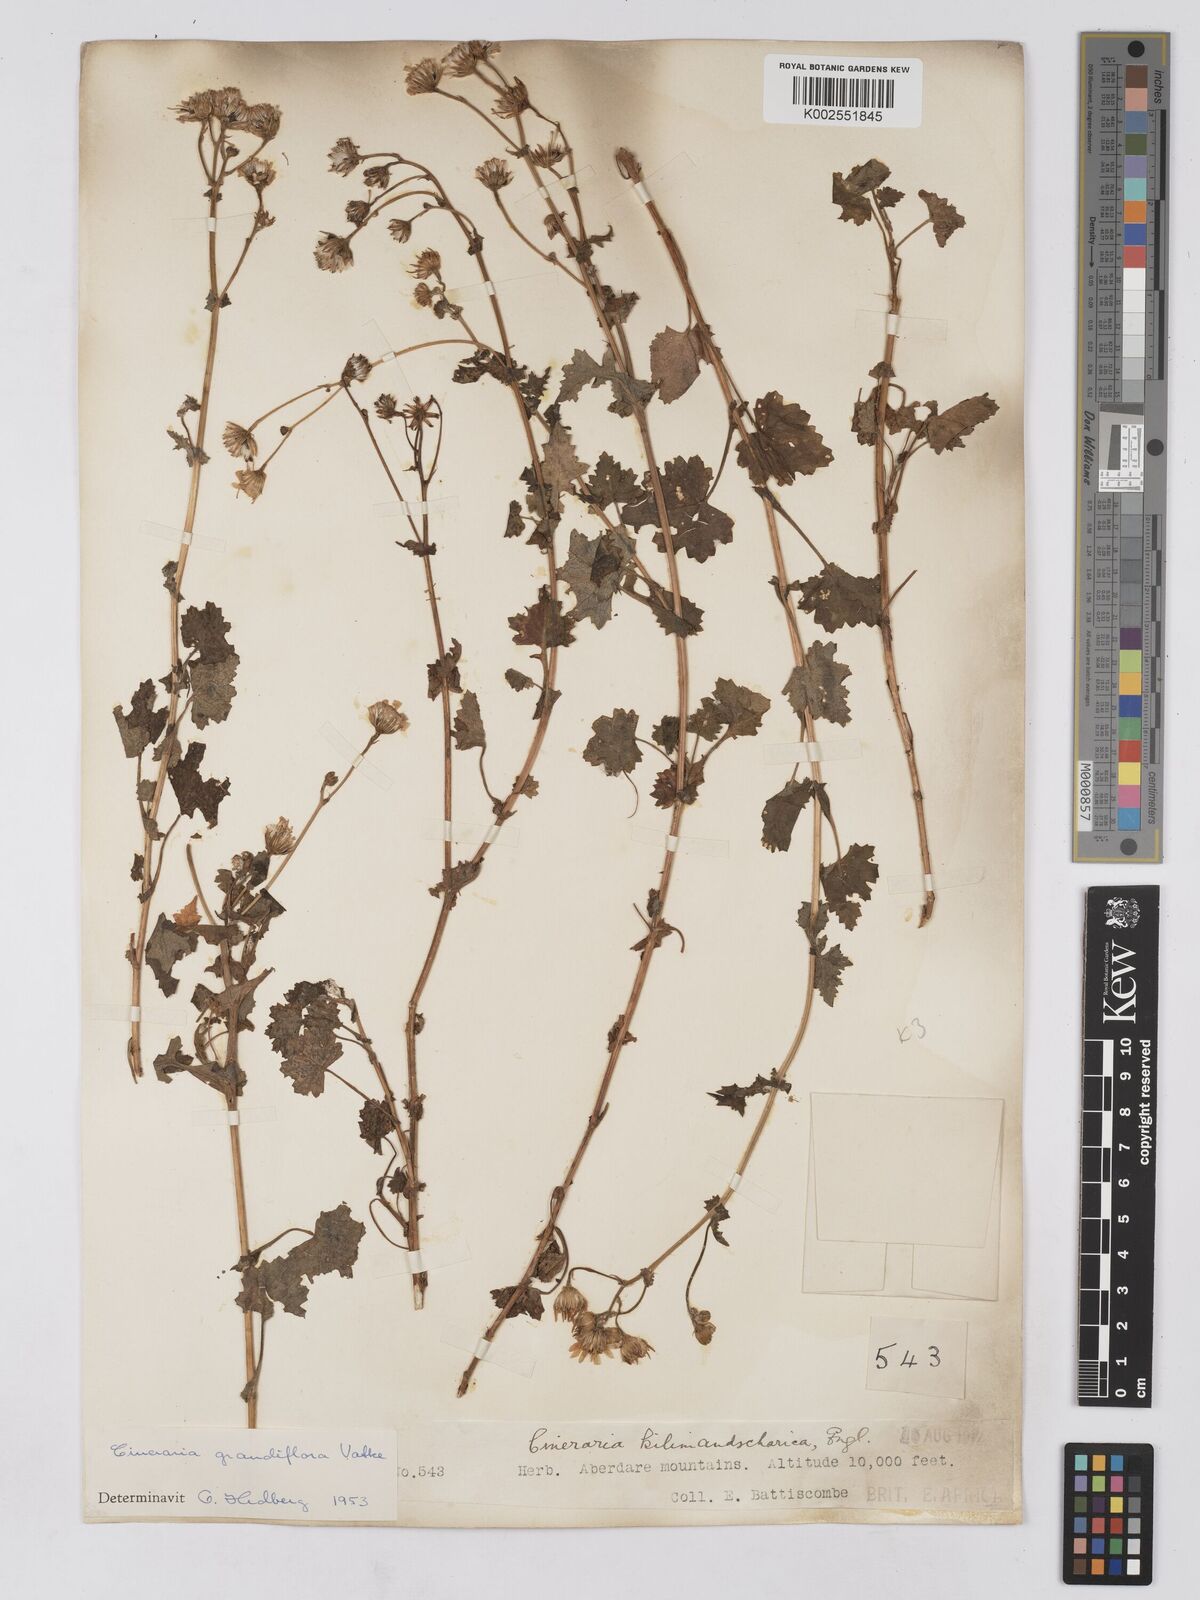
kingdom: Plantae
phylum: Tracheophyta
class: Magnoliopsida
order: Asterales
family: Asteraceae
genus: Cineraria
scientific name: Cineraria deltoidea
